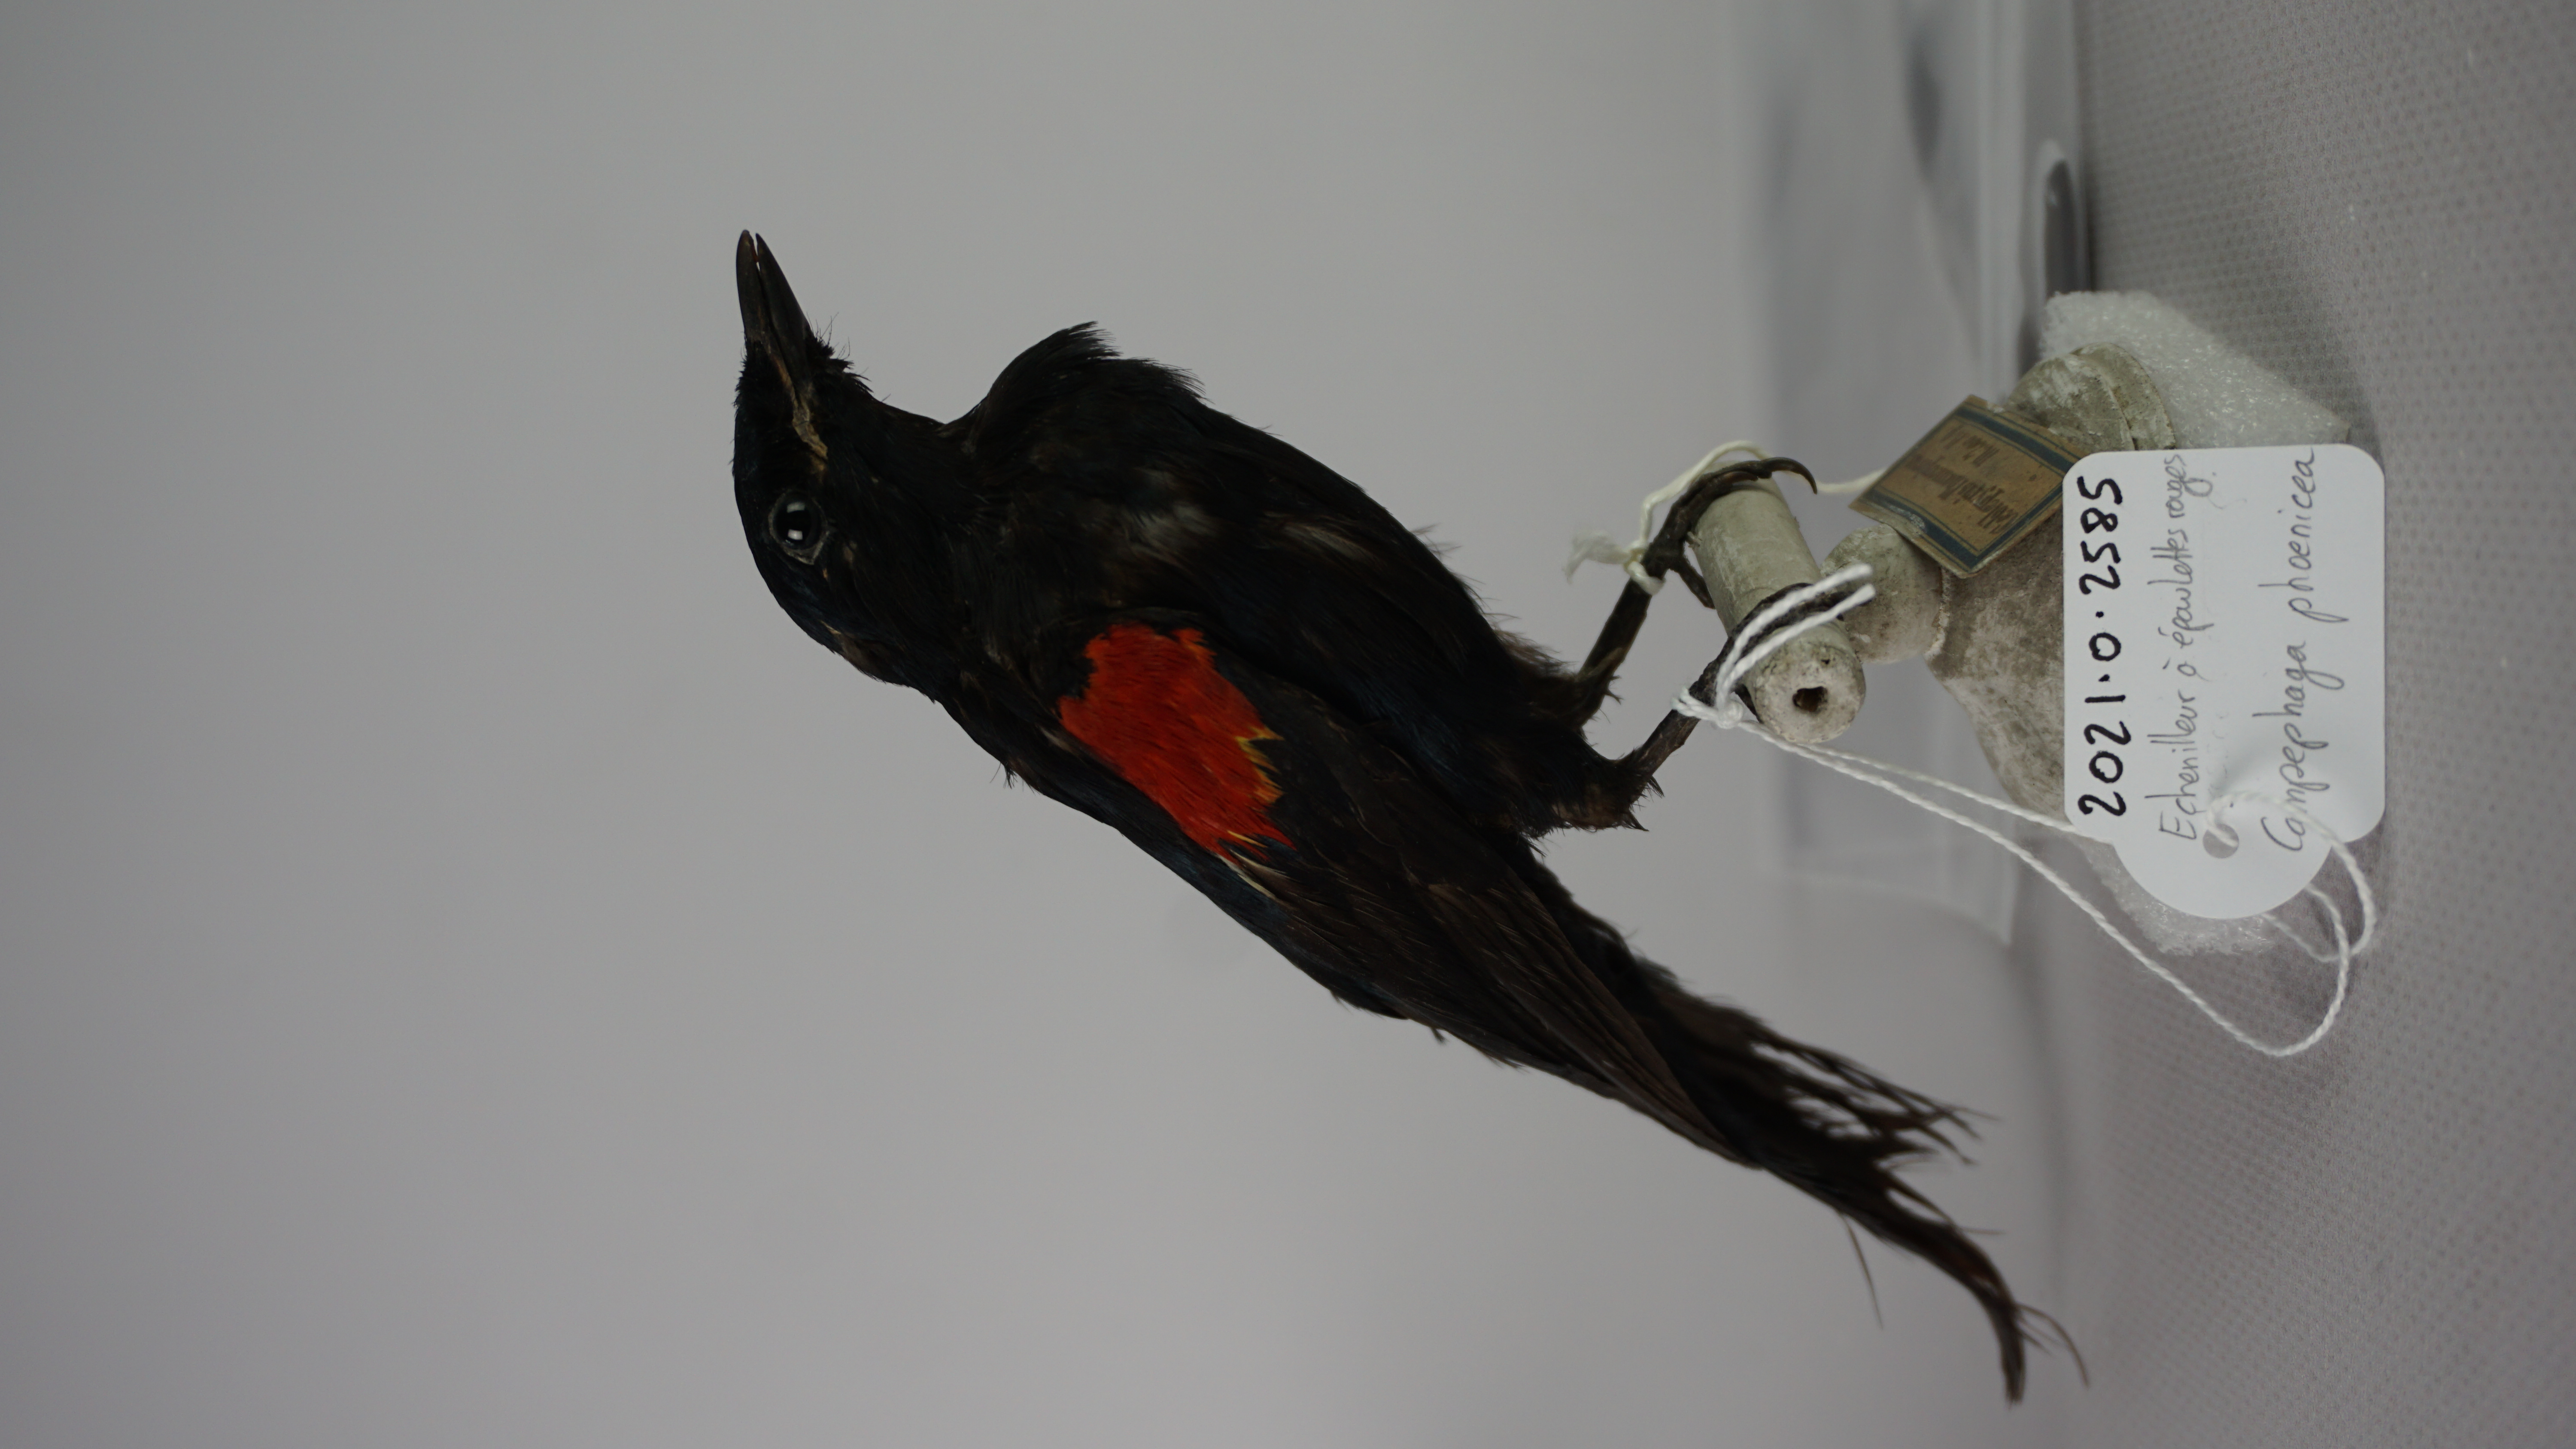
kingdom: Animalia
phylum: Chordata
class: Aves
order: Passeriformes
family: Campephagidae
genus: Campephaga
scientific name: Campephaga phoenicea
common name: Red-shouldered cuckooshrike
